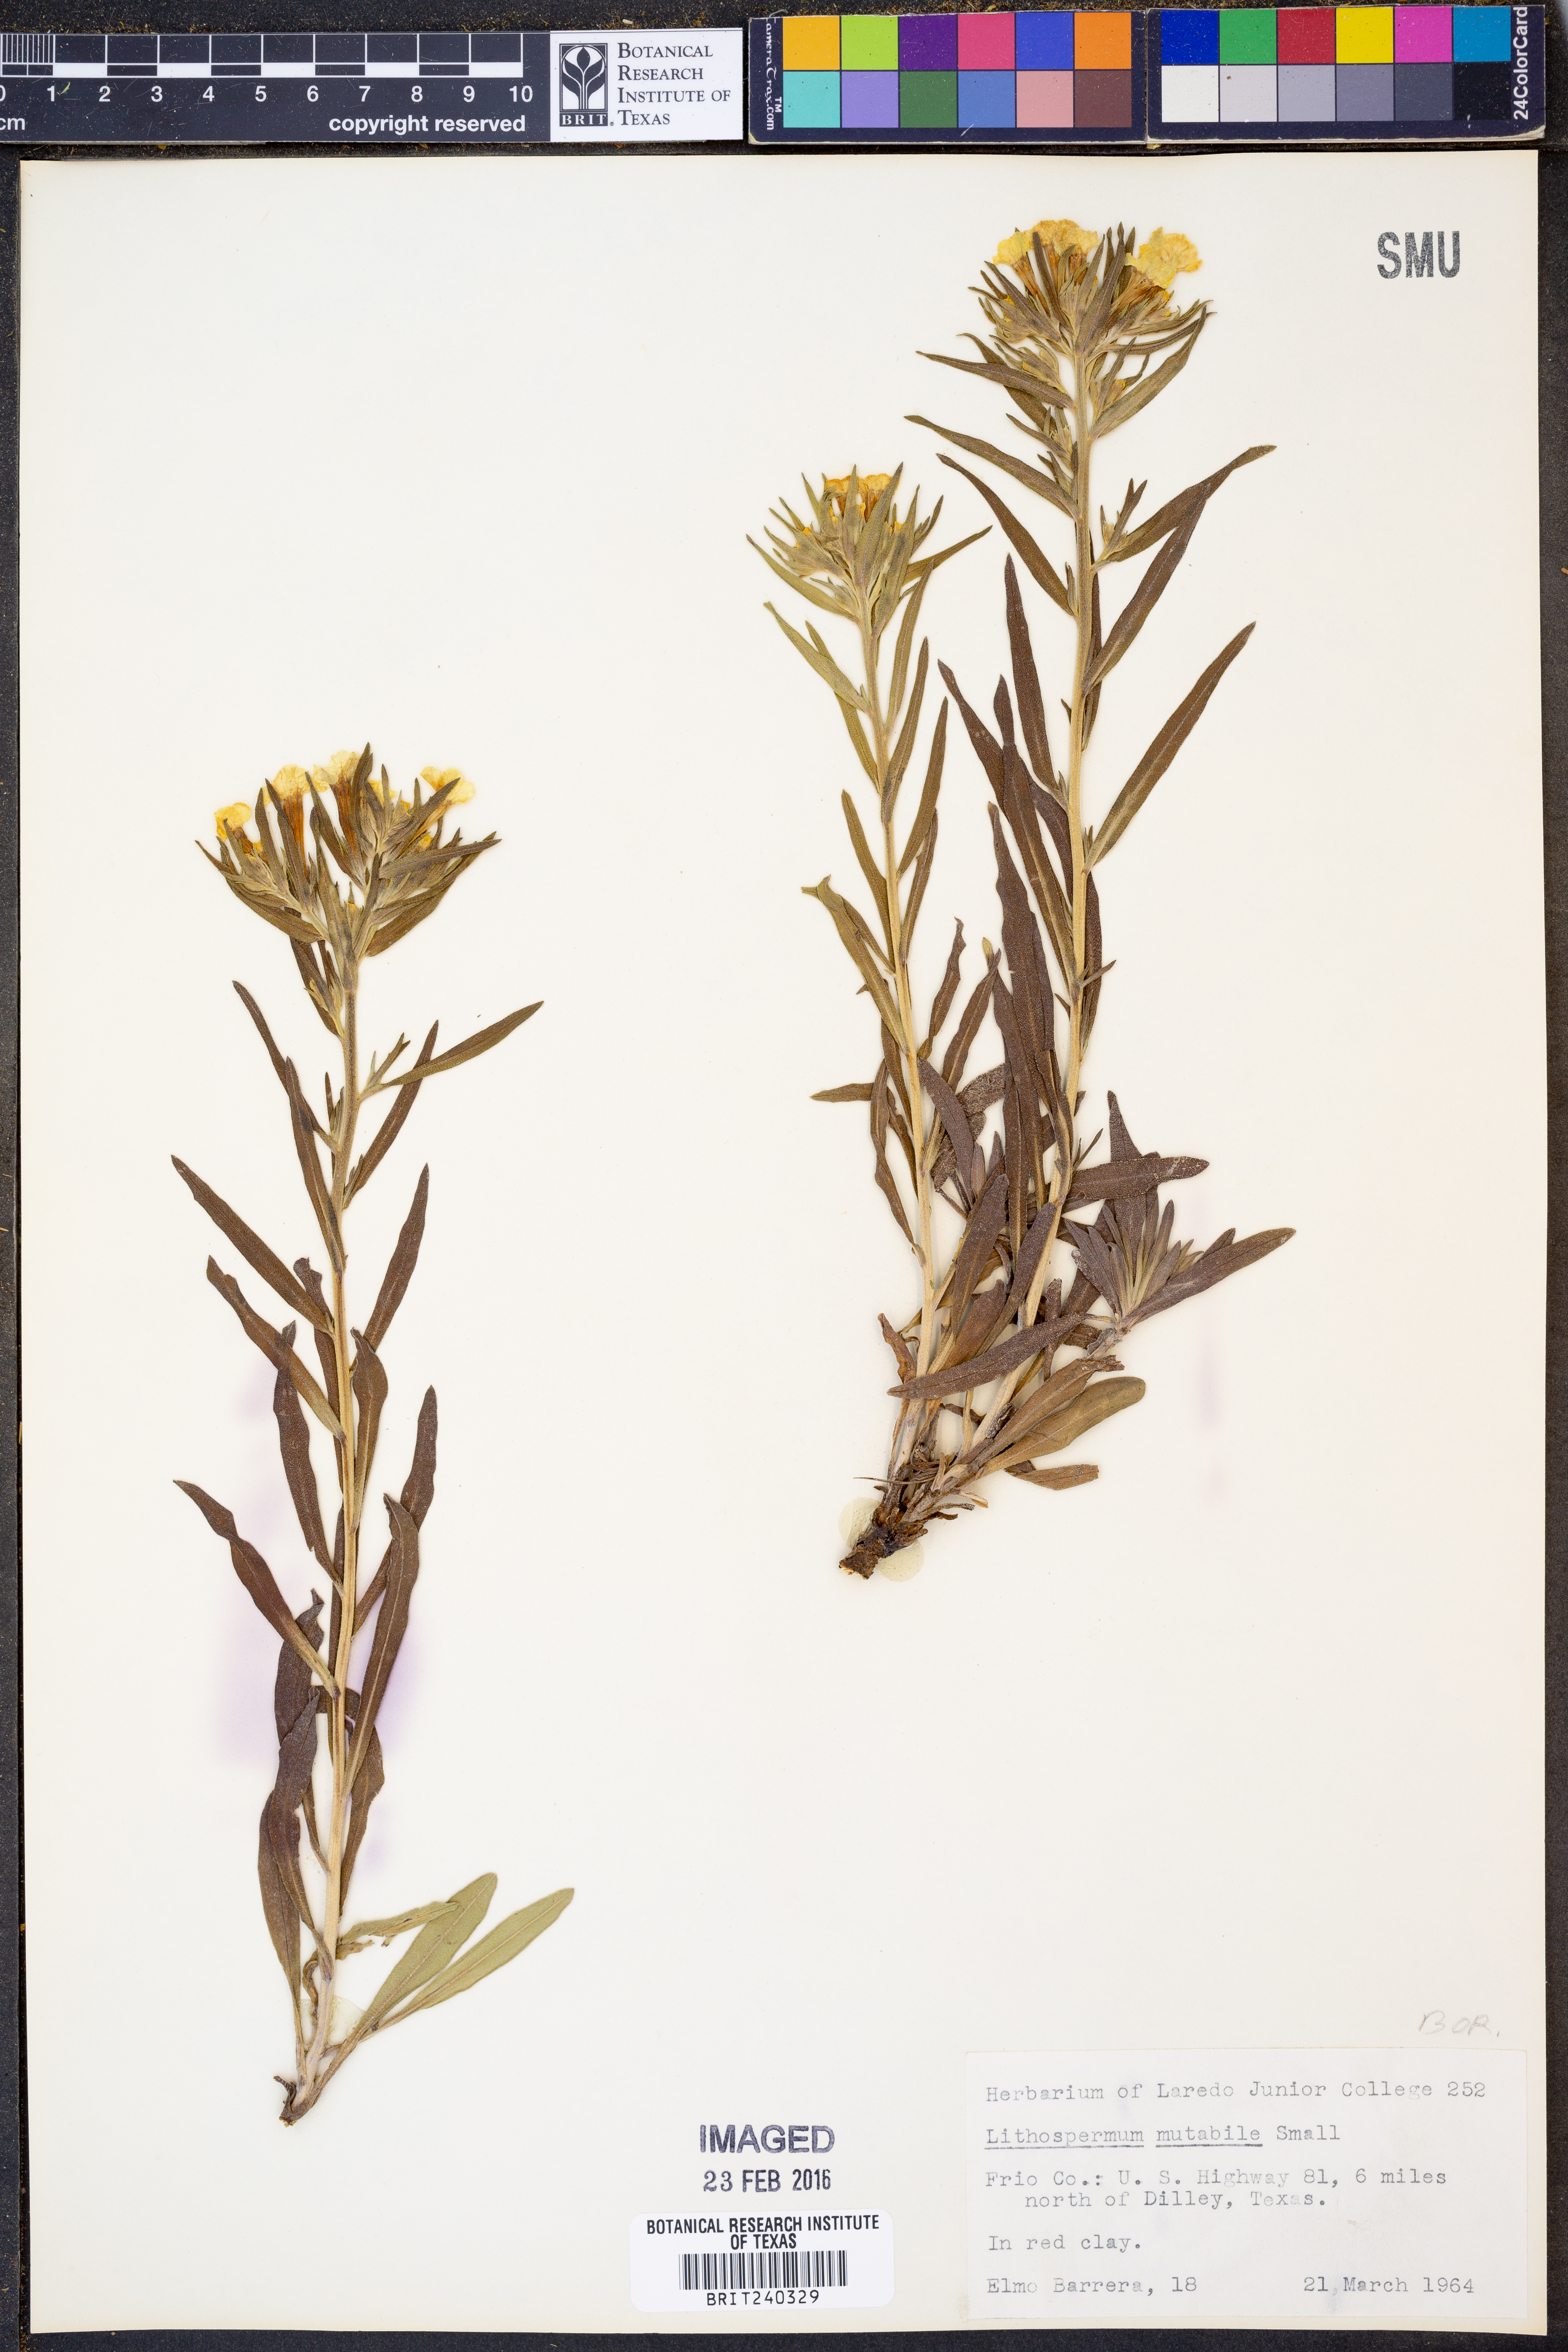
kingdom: Plantae
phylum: Tracheophyta
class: Magnoliopsida
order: Boraginales
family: Boraginaceae
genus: Lithospermum
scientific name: Lithospermum mirabile
